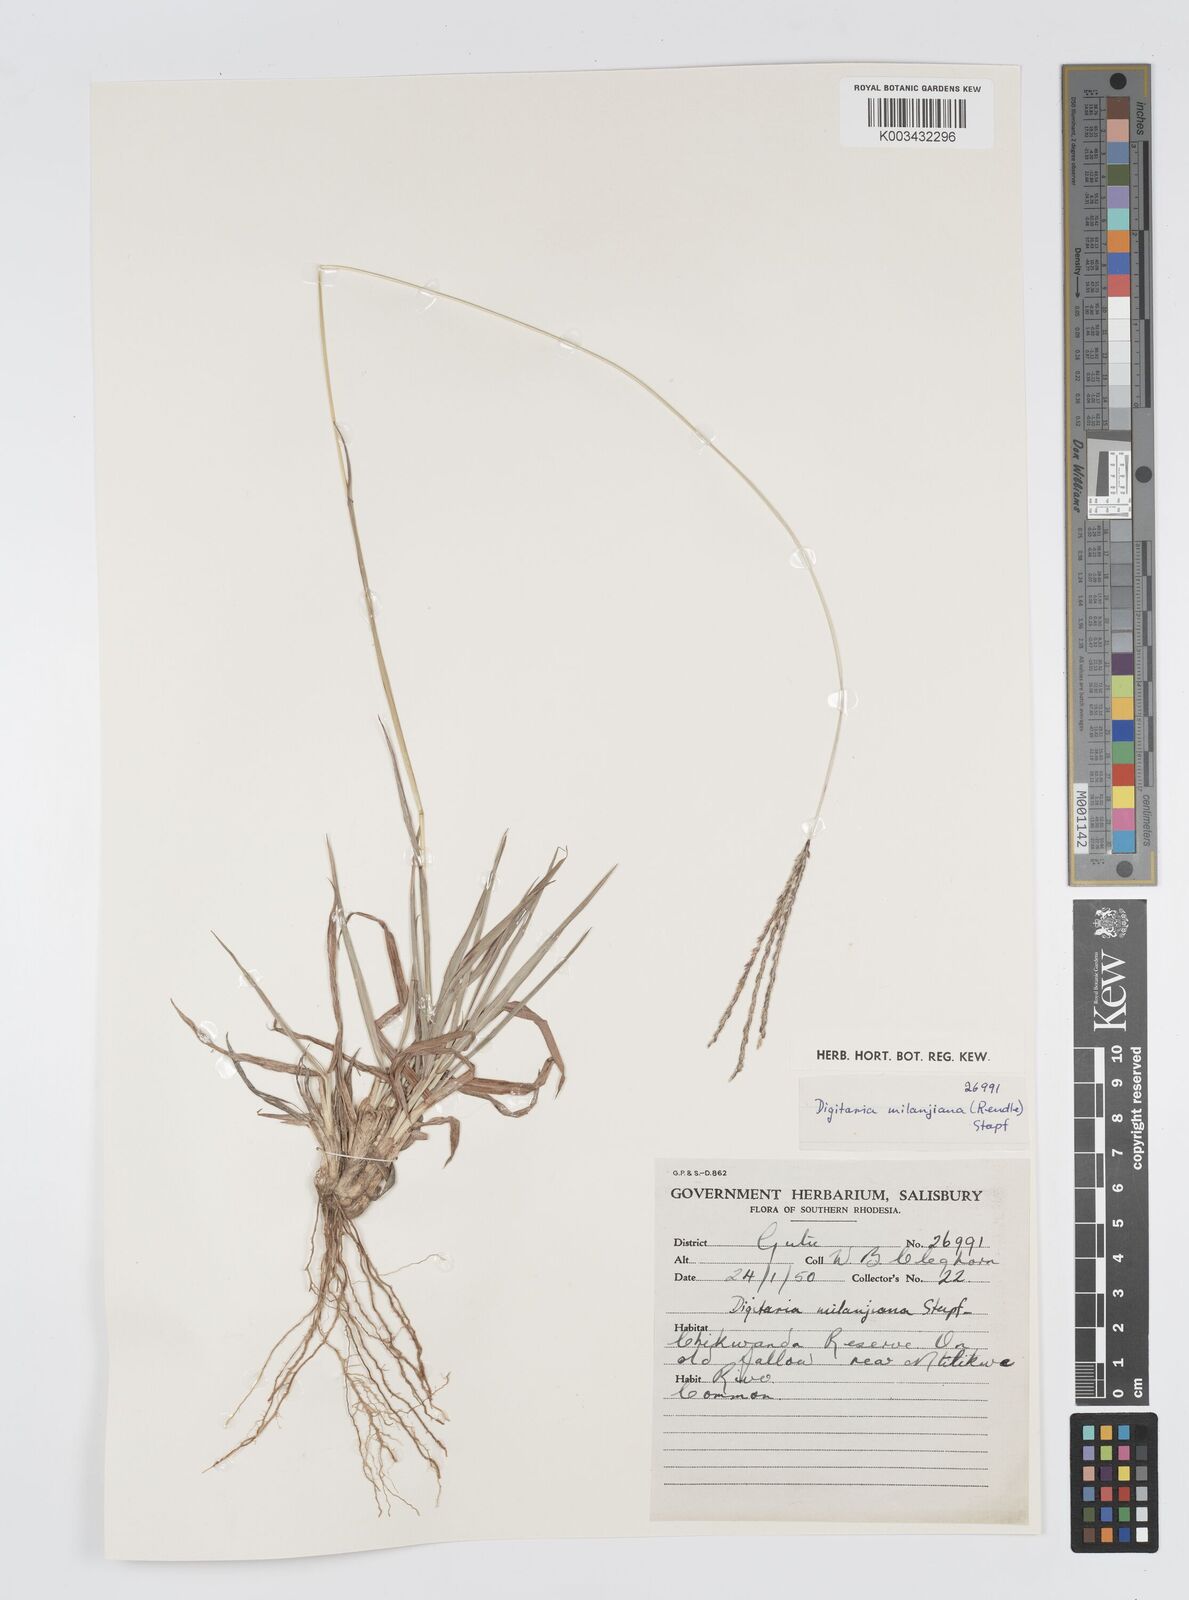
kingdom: Plantae
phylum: Tracheophyta
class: Liliopsida
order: Poales
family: Poaceae
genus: Digitaria
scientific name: Digitaria seriata
